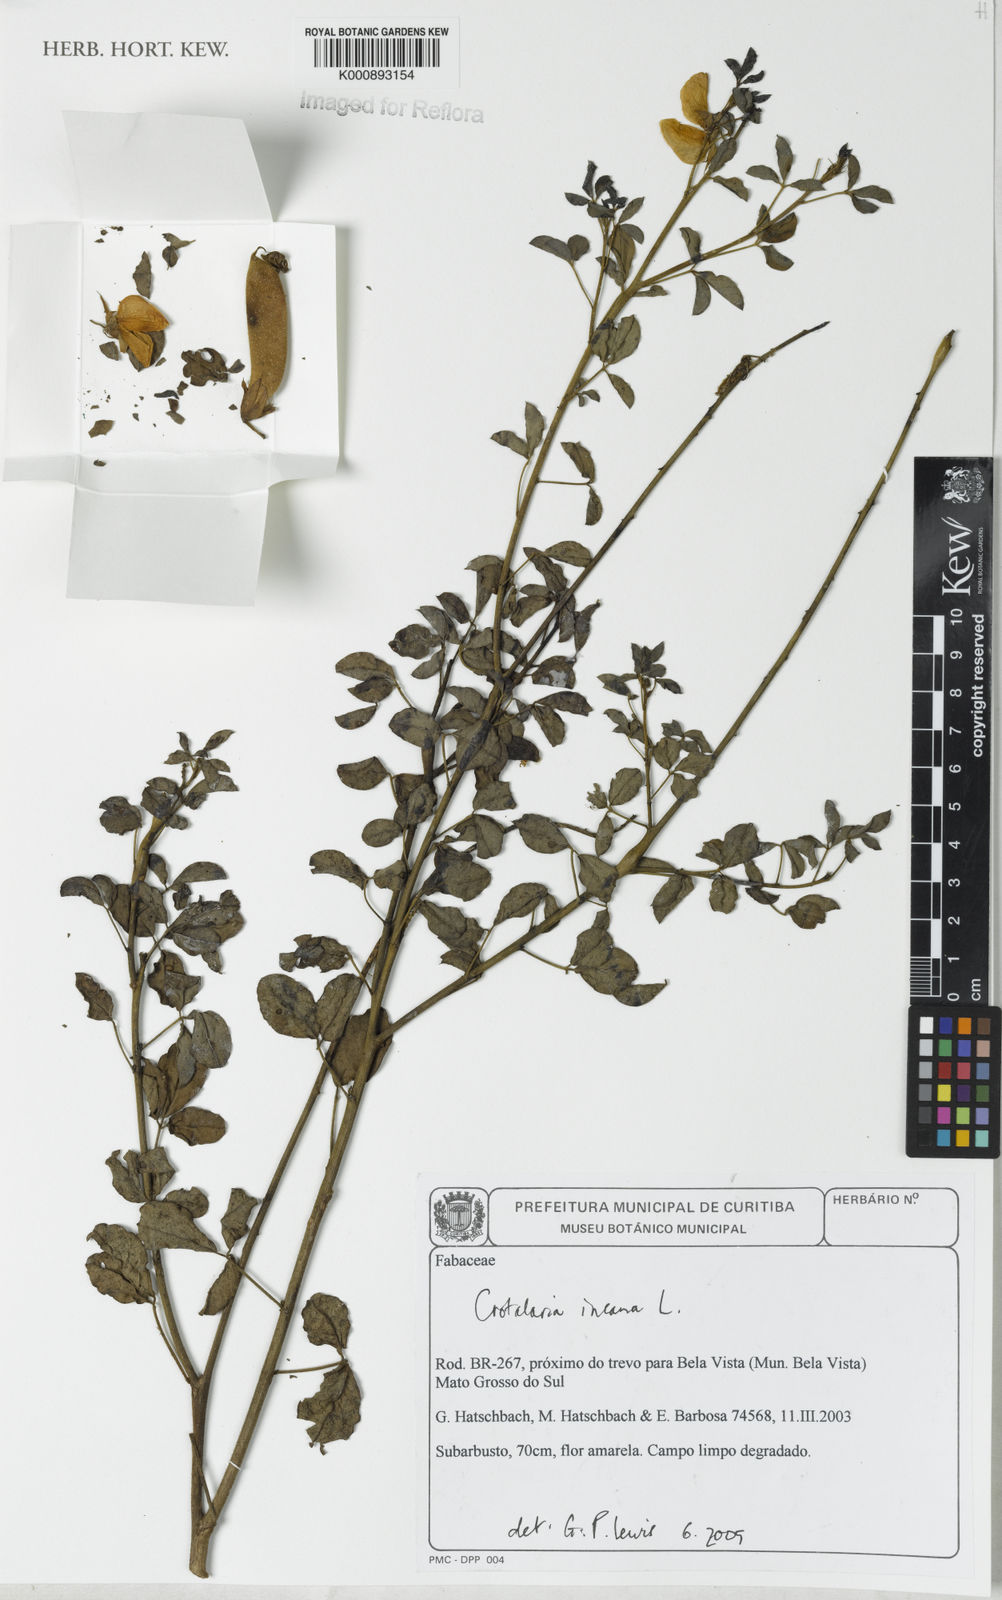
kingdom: Plantae
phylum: Tracheophyta
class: Magnoliopsida
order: Fabales
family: Fabaceae
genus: Crotalaria
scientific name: Crotalaria incana
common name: Shakeshake
